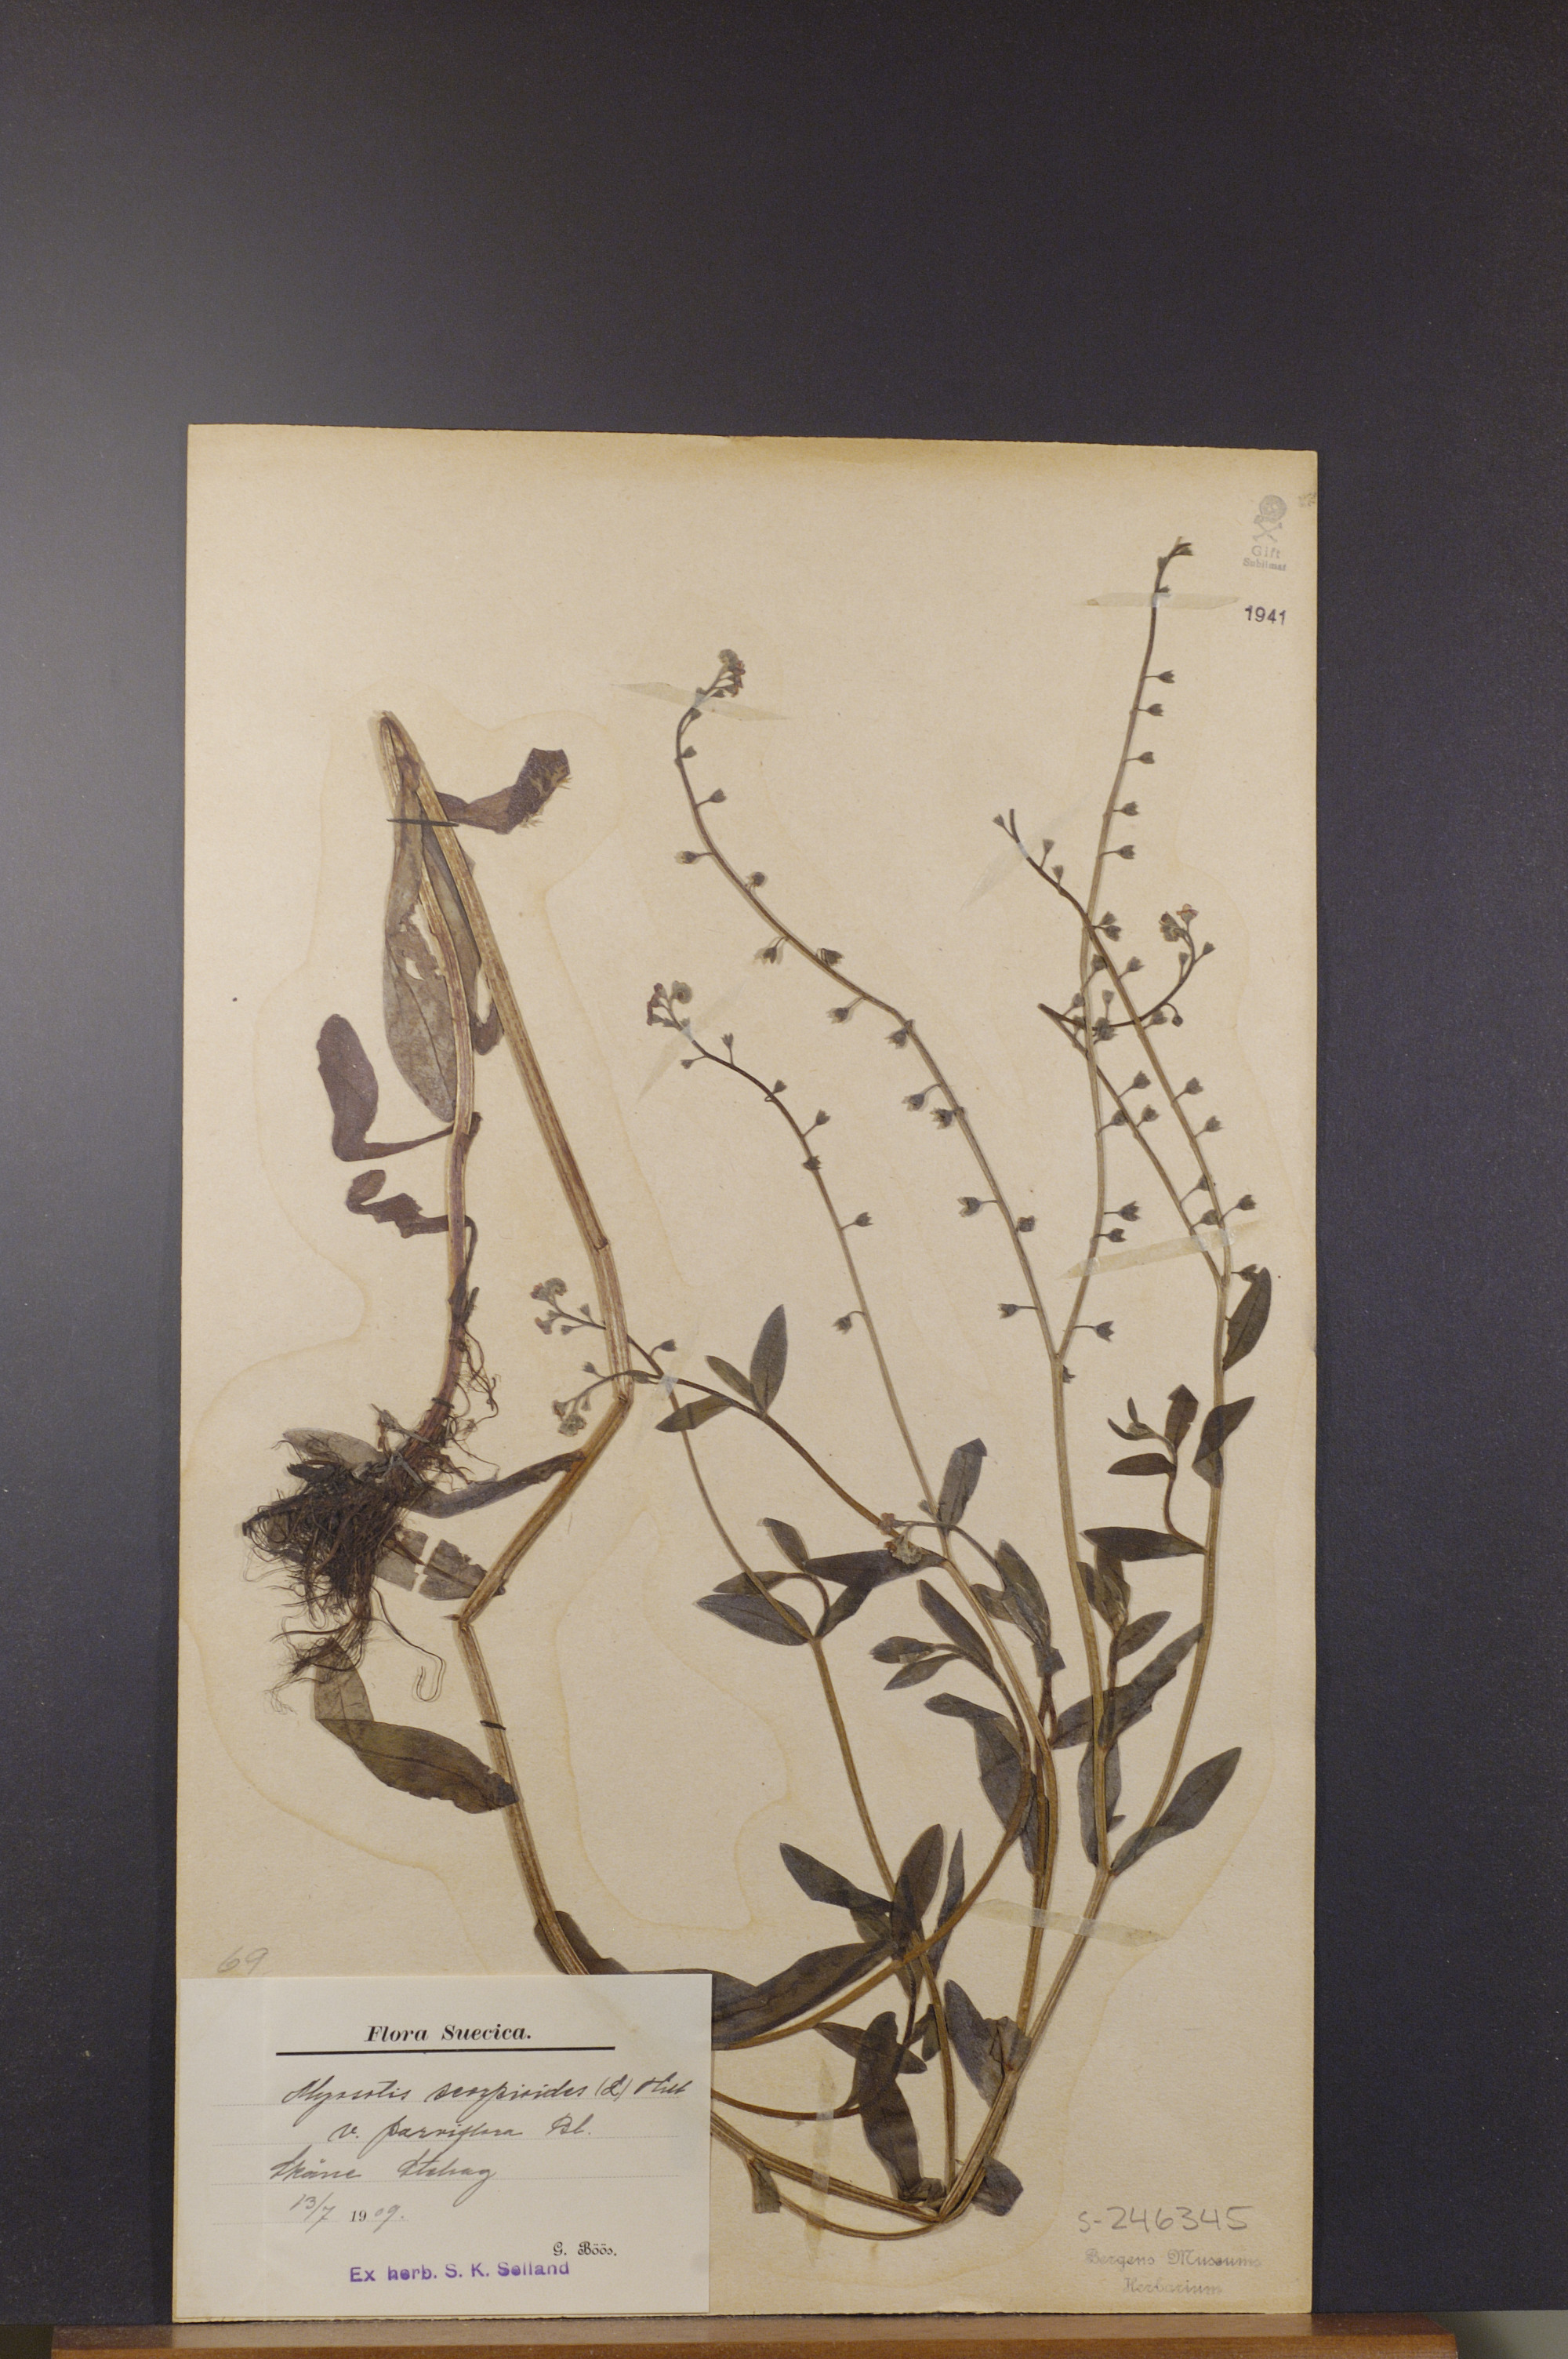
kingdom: Plantae
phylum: Tracheophyta
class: Magnoliopsida
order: Boraginales
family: Boraginaceae
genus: Myosotis
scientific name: Myosotis scorpioides
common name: Water forget-me-not
